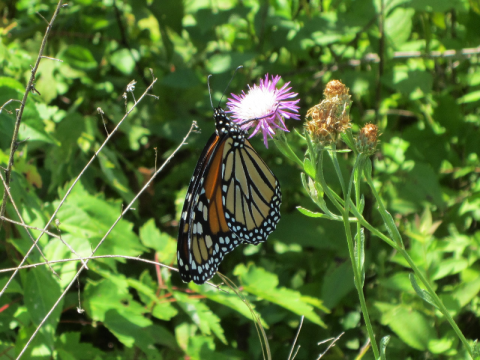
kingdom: Animalia
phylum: Arthropoda
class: Insecta
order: Lepidoptera
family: Nymphalidae
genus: Danaus
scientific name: Danaus plexippus
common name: Monarch
